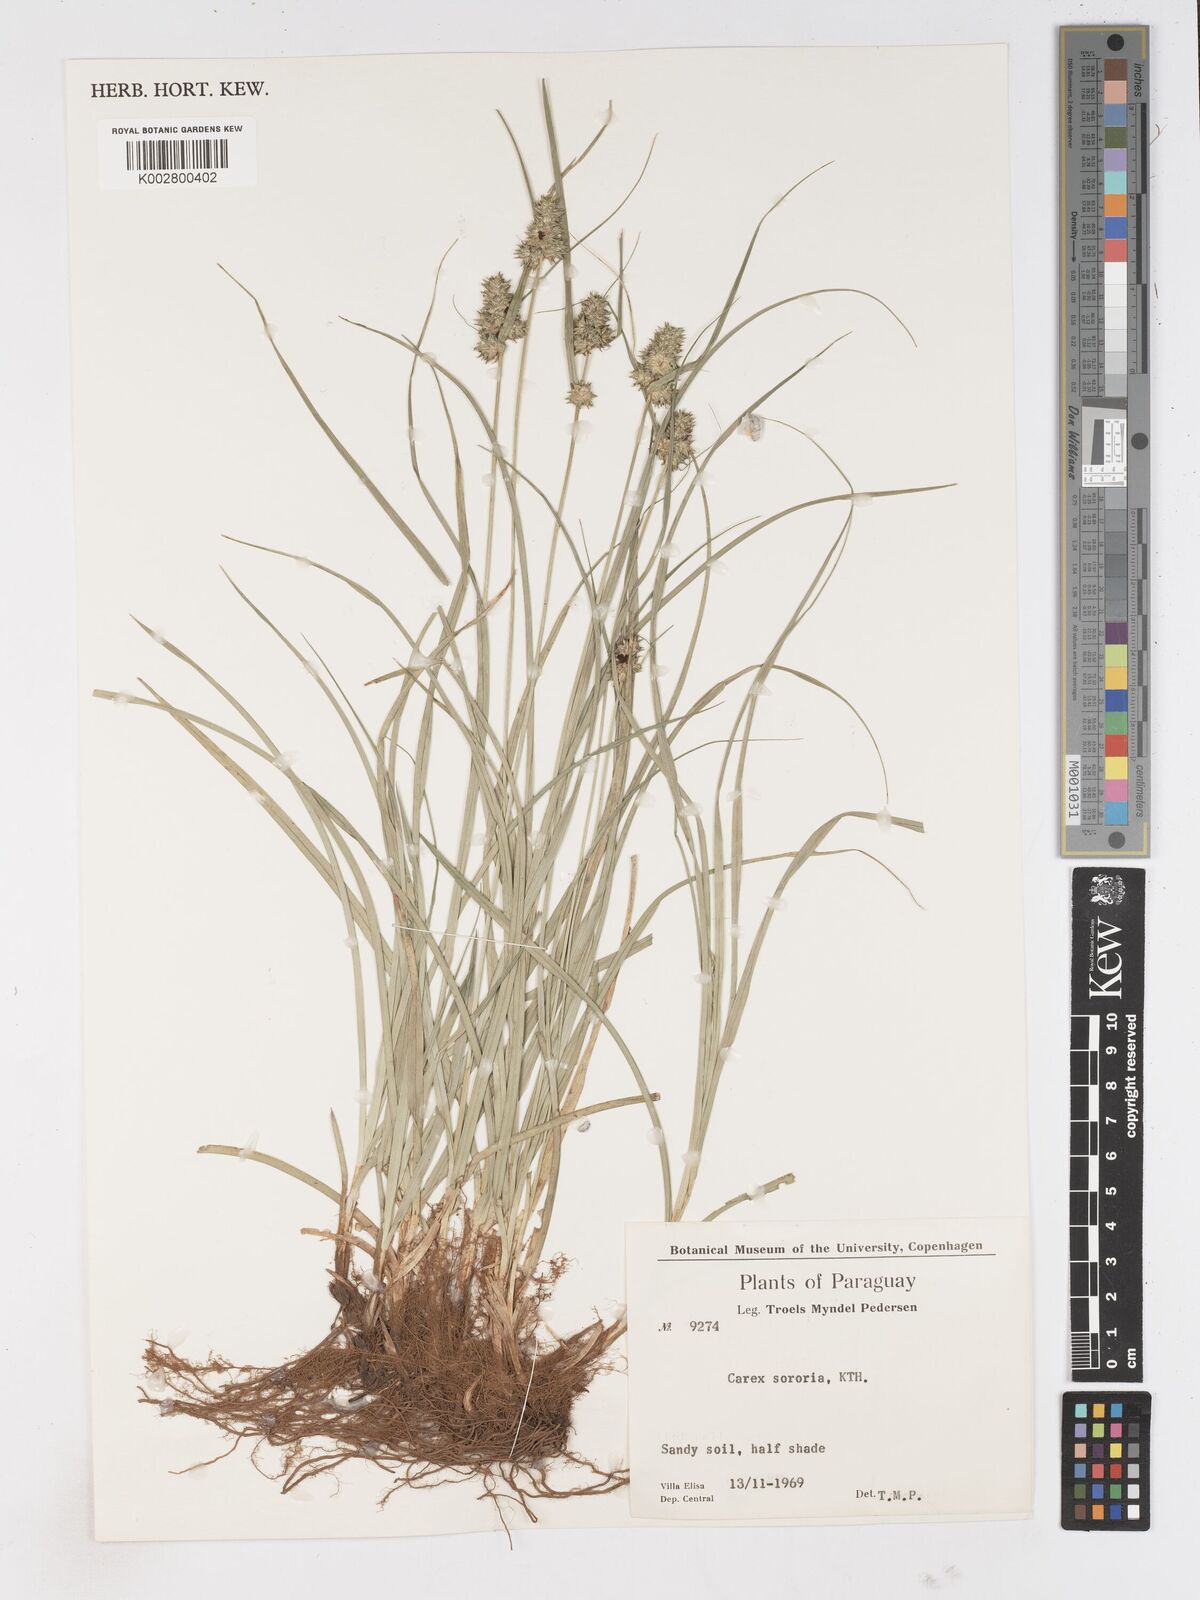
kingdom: Plantae
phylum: Tracheophyta
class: Liliopsida
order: Poales
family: Cyperaceae
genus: Carex
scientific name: Carex sororia
